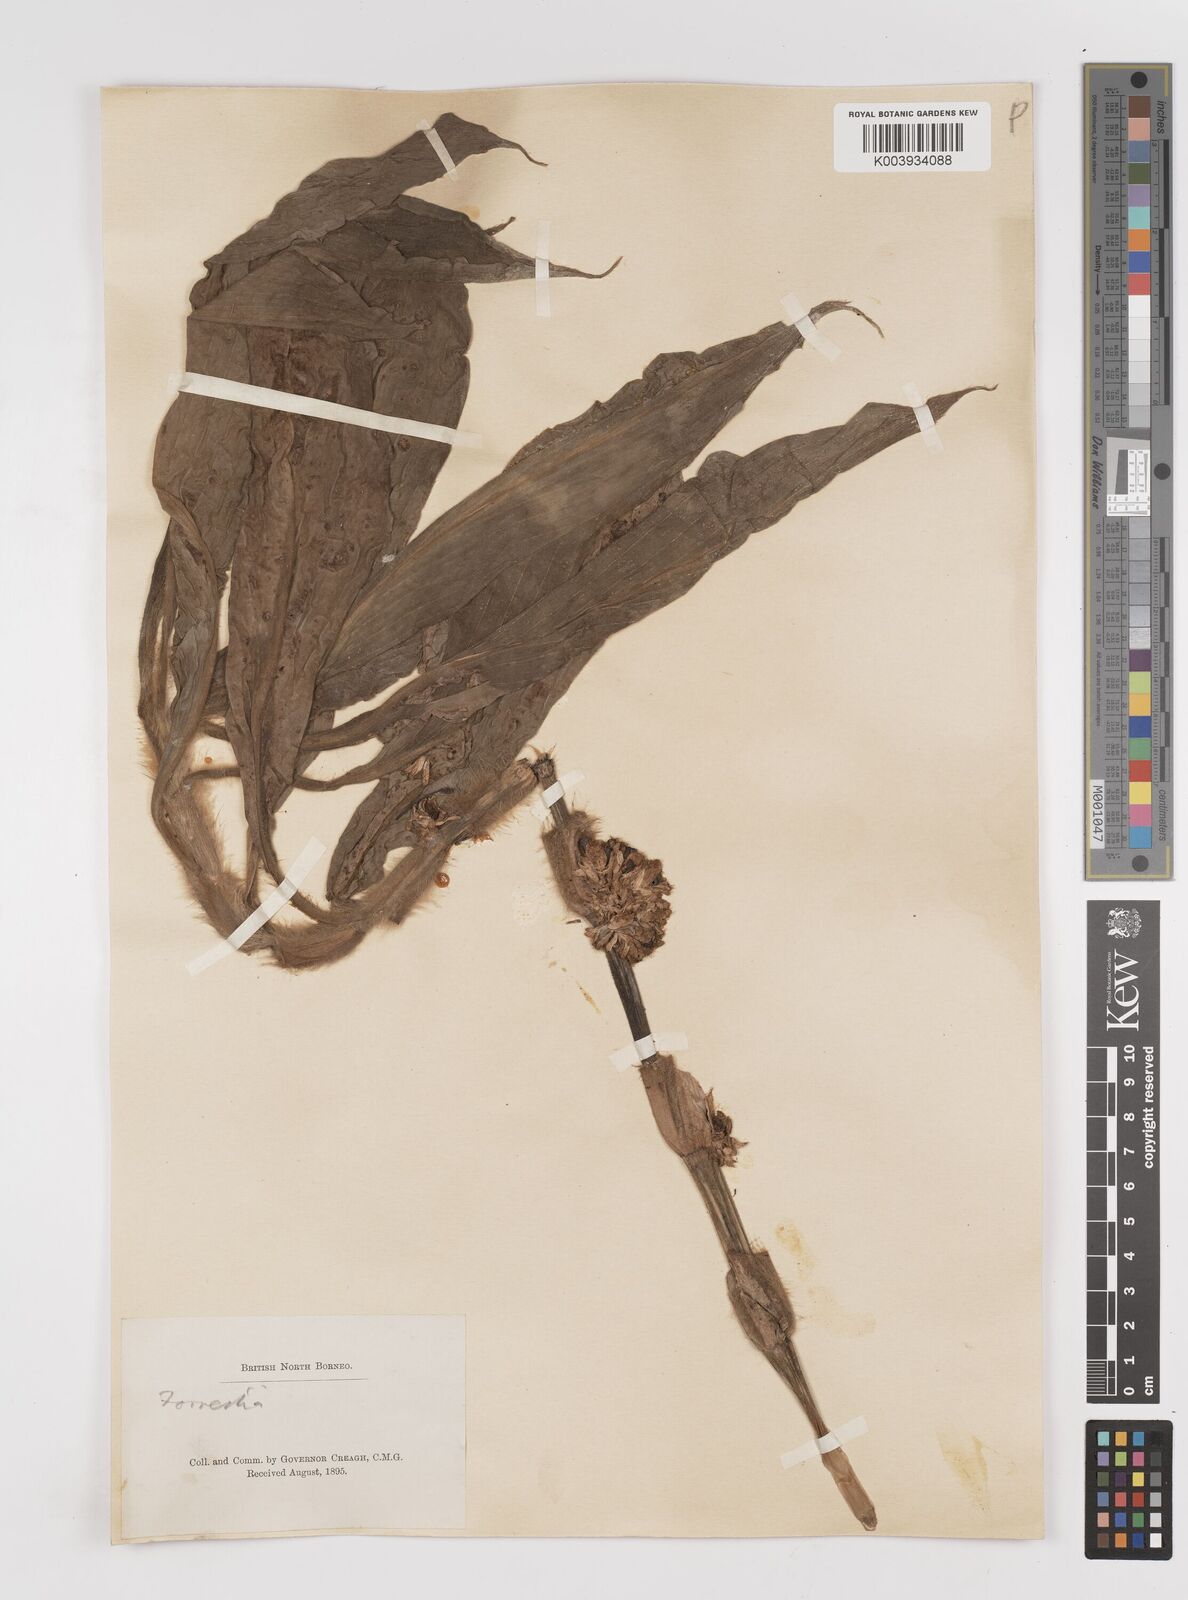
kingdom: Plantae
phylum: Tracheophyta
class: Liliopsida
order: Commelinales
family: Commelinaceae
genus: Amischotolype
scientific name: Amischotolype
